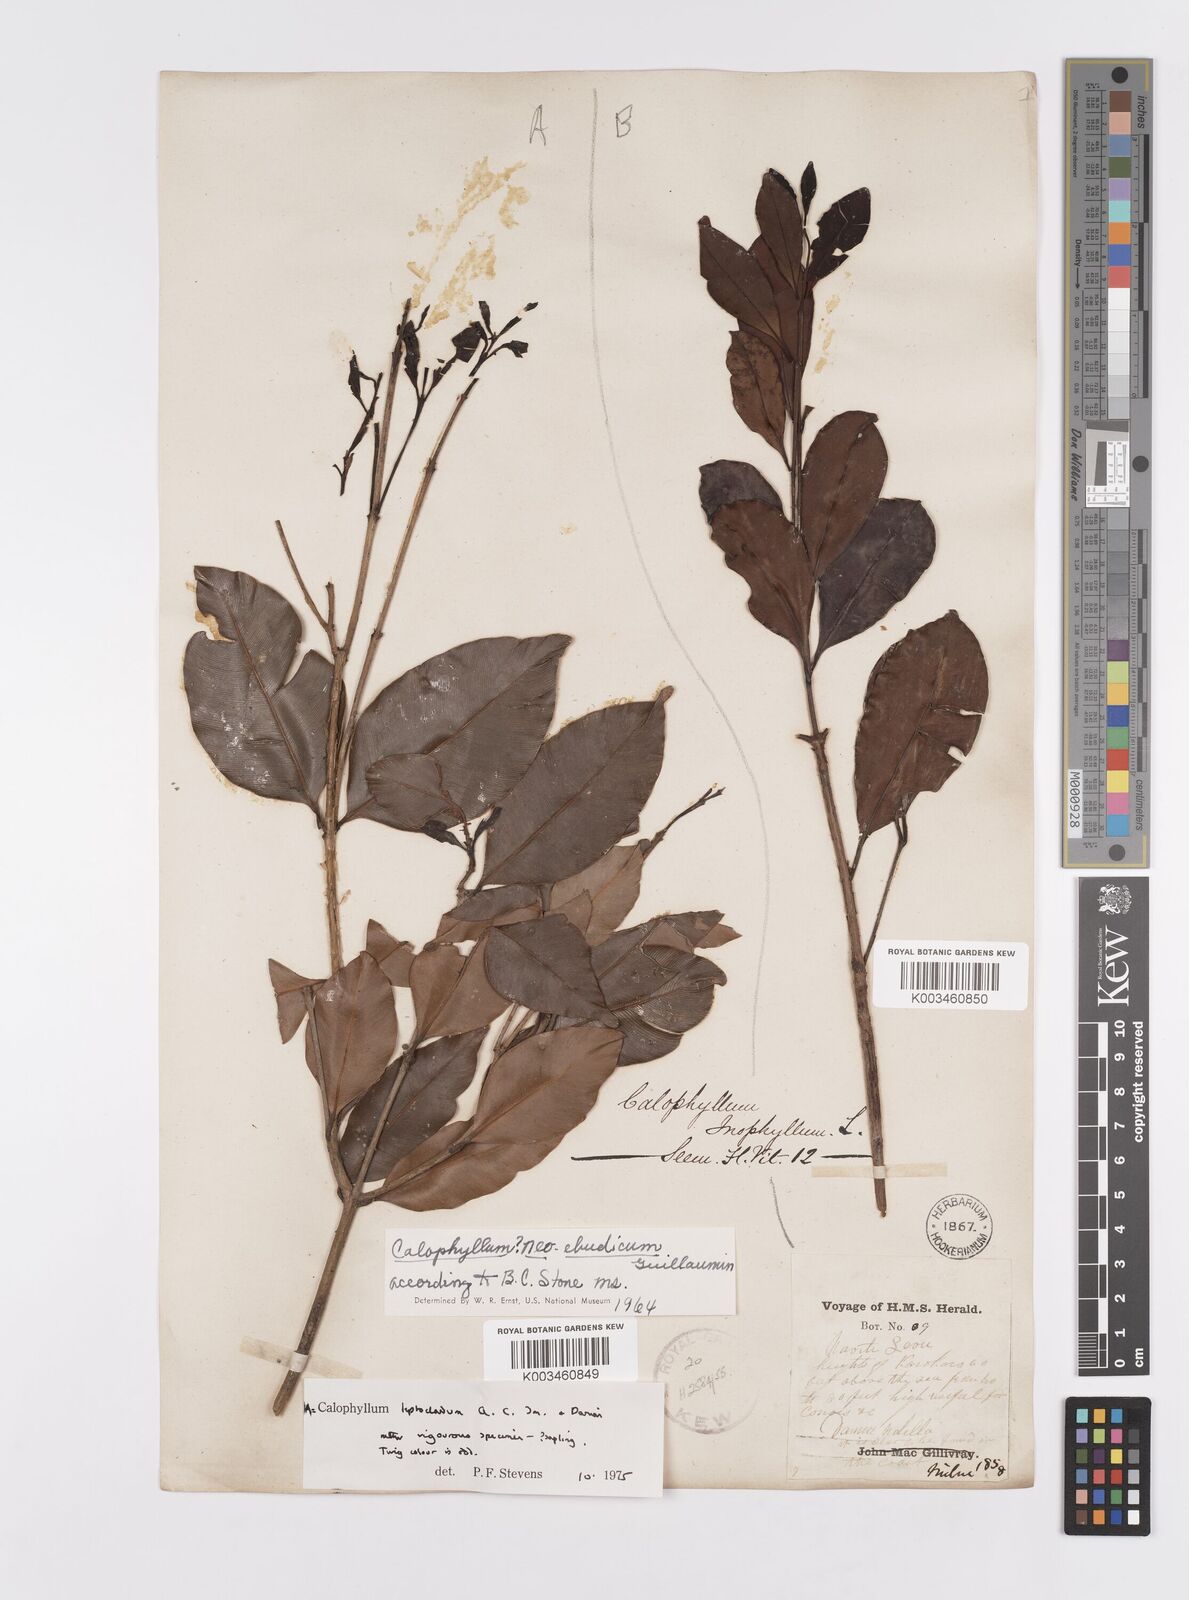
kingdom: Plantae
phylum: Tracheophyta
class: Magnoliopsida
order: Malpighiales
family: Calophyllaceae
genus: Calophyllum
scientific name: Calophyllum leptocladum
